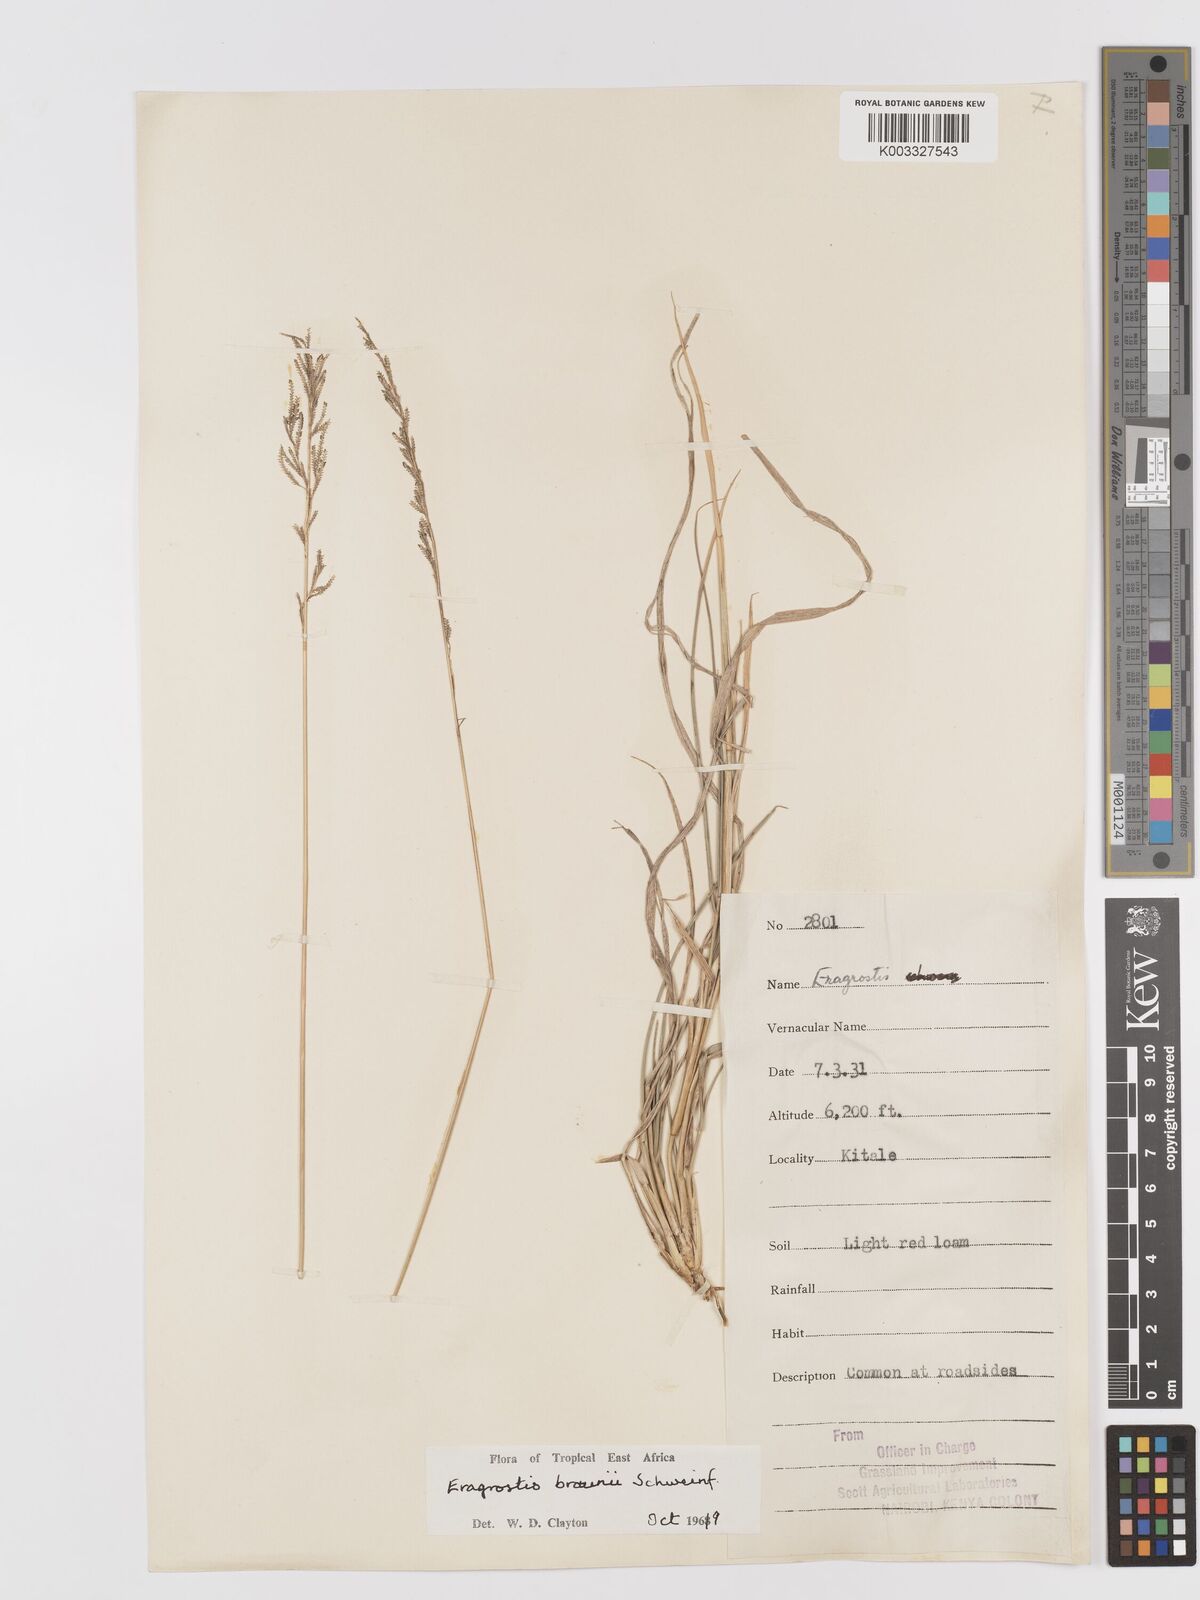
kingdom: Plantae
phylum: Tracheophyta
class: Liliopsida
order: Poales
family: Poaceae
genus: Eragrostis
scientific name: Eragrostis braunii
